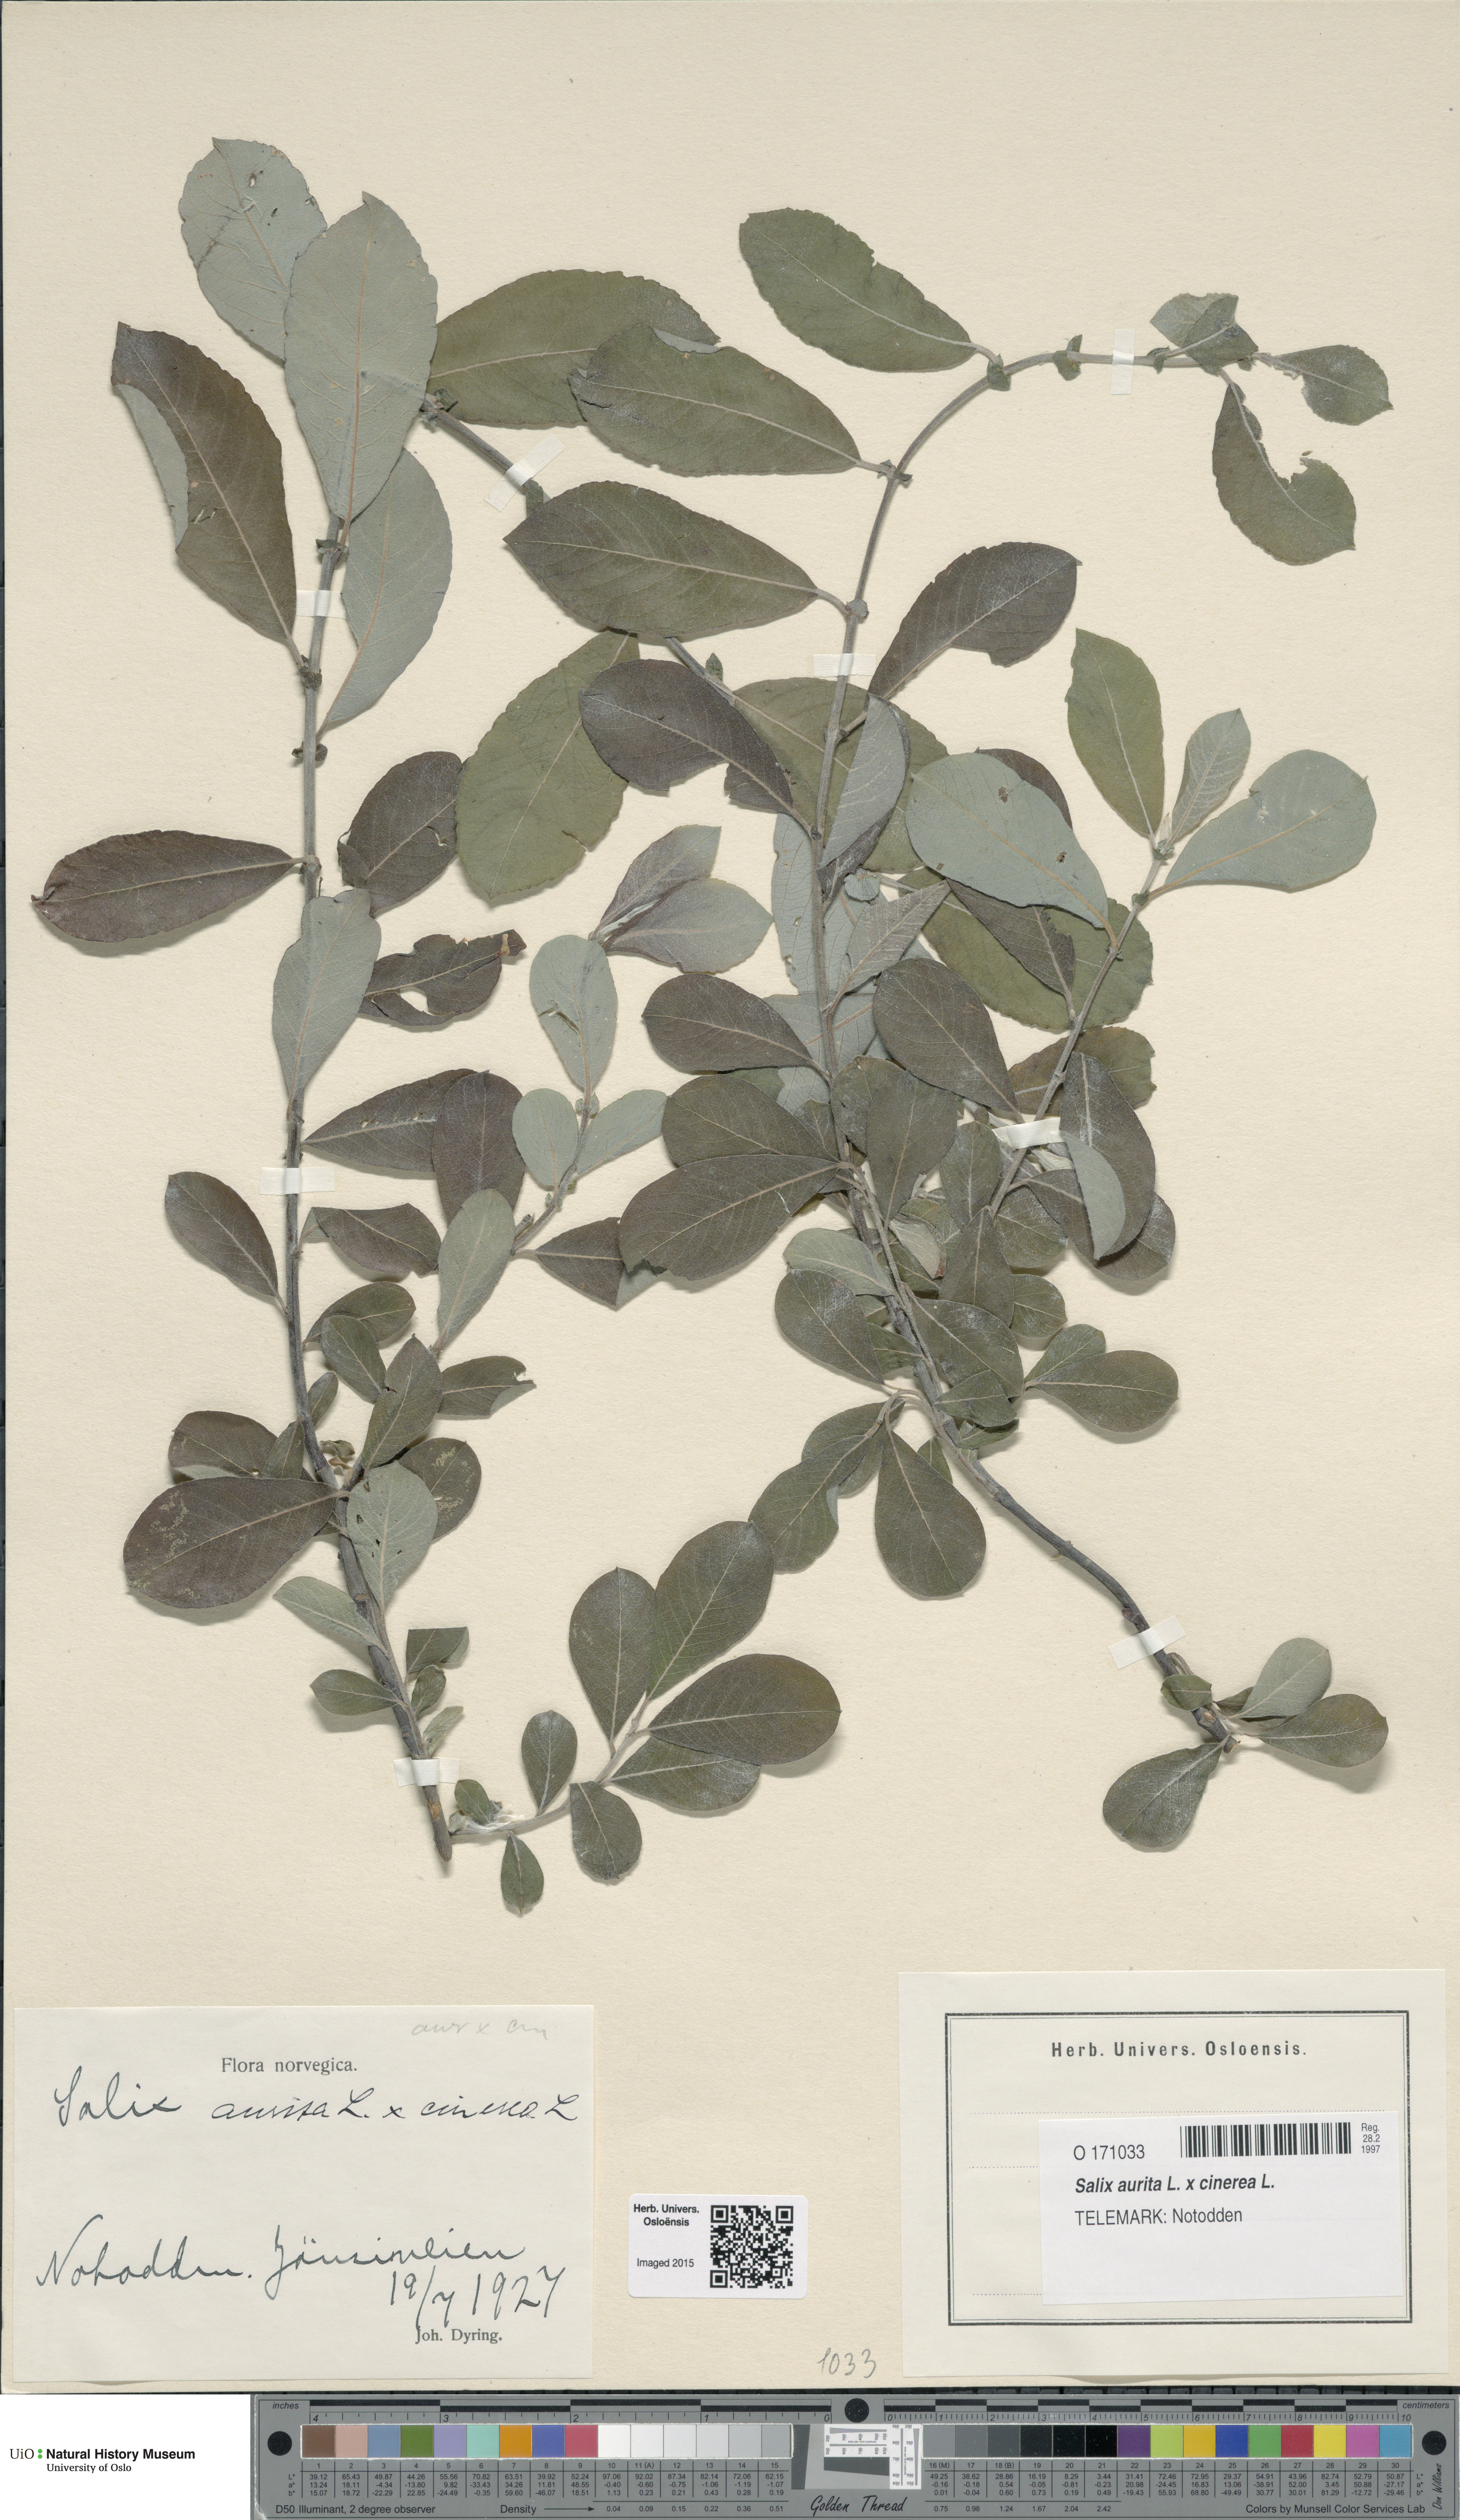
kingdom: Plantae
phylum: Tracheophyta
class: Magnoliopsida
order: Malpighiales
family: Salicaceae
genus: Salix
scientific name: Salix
